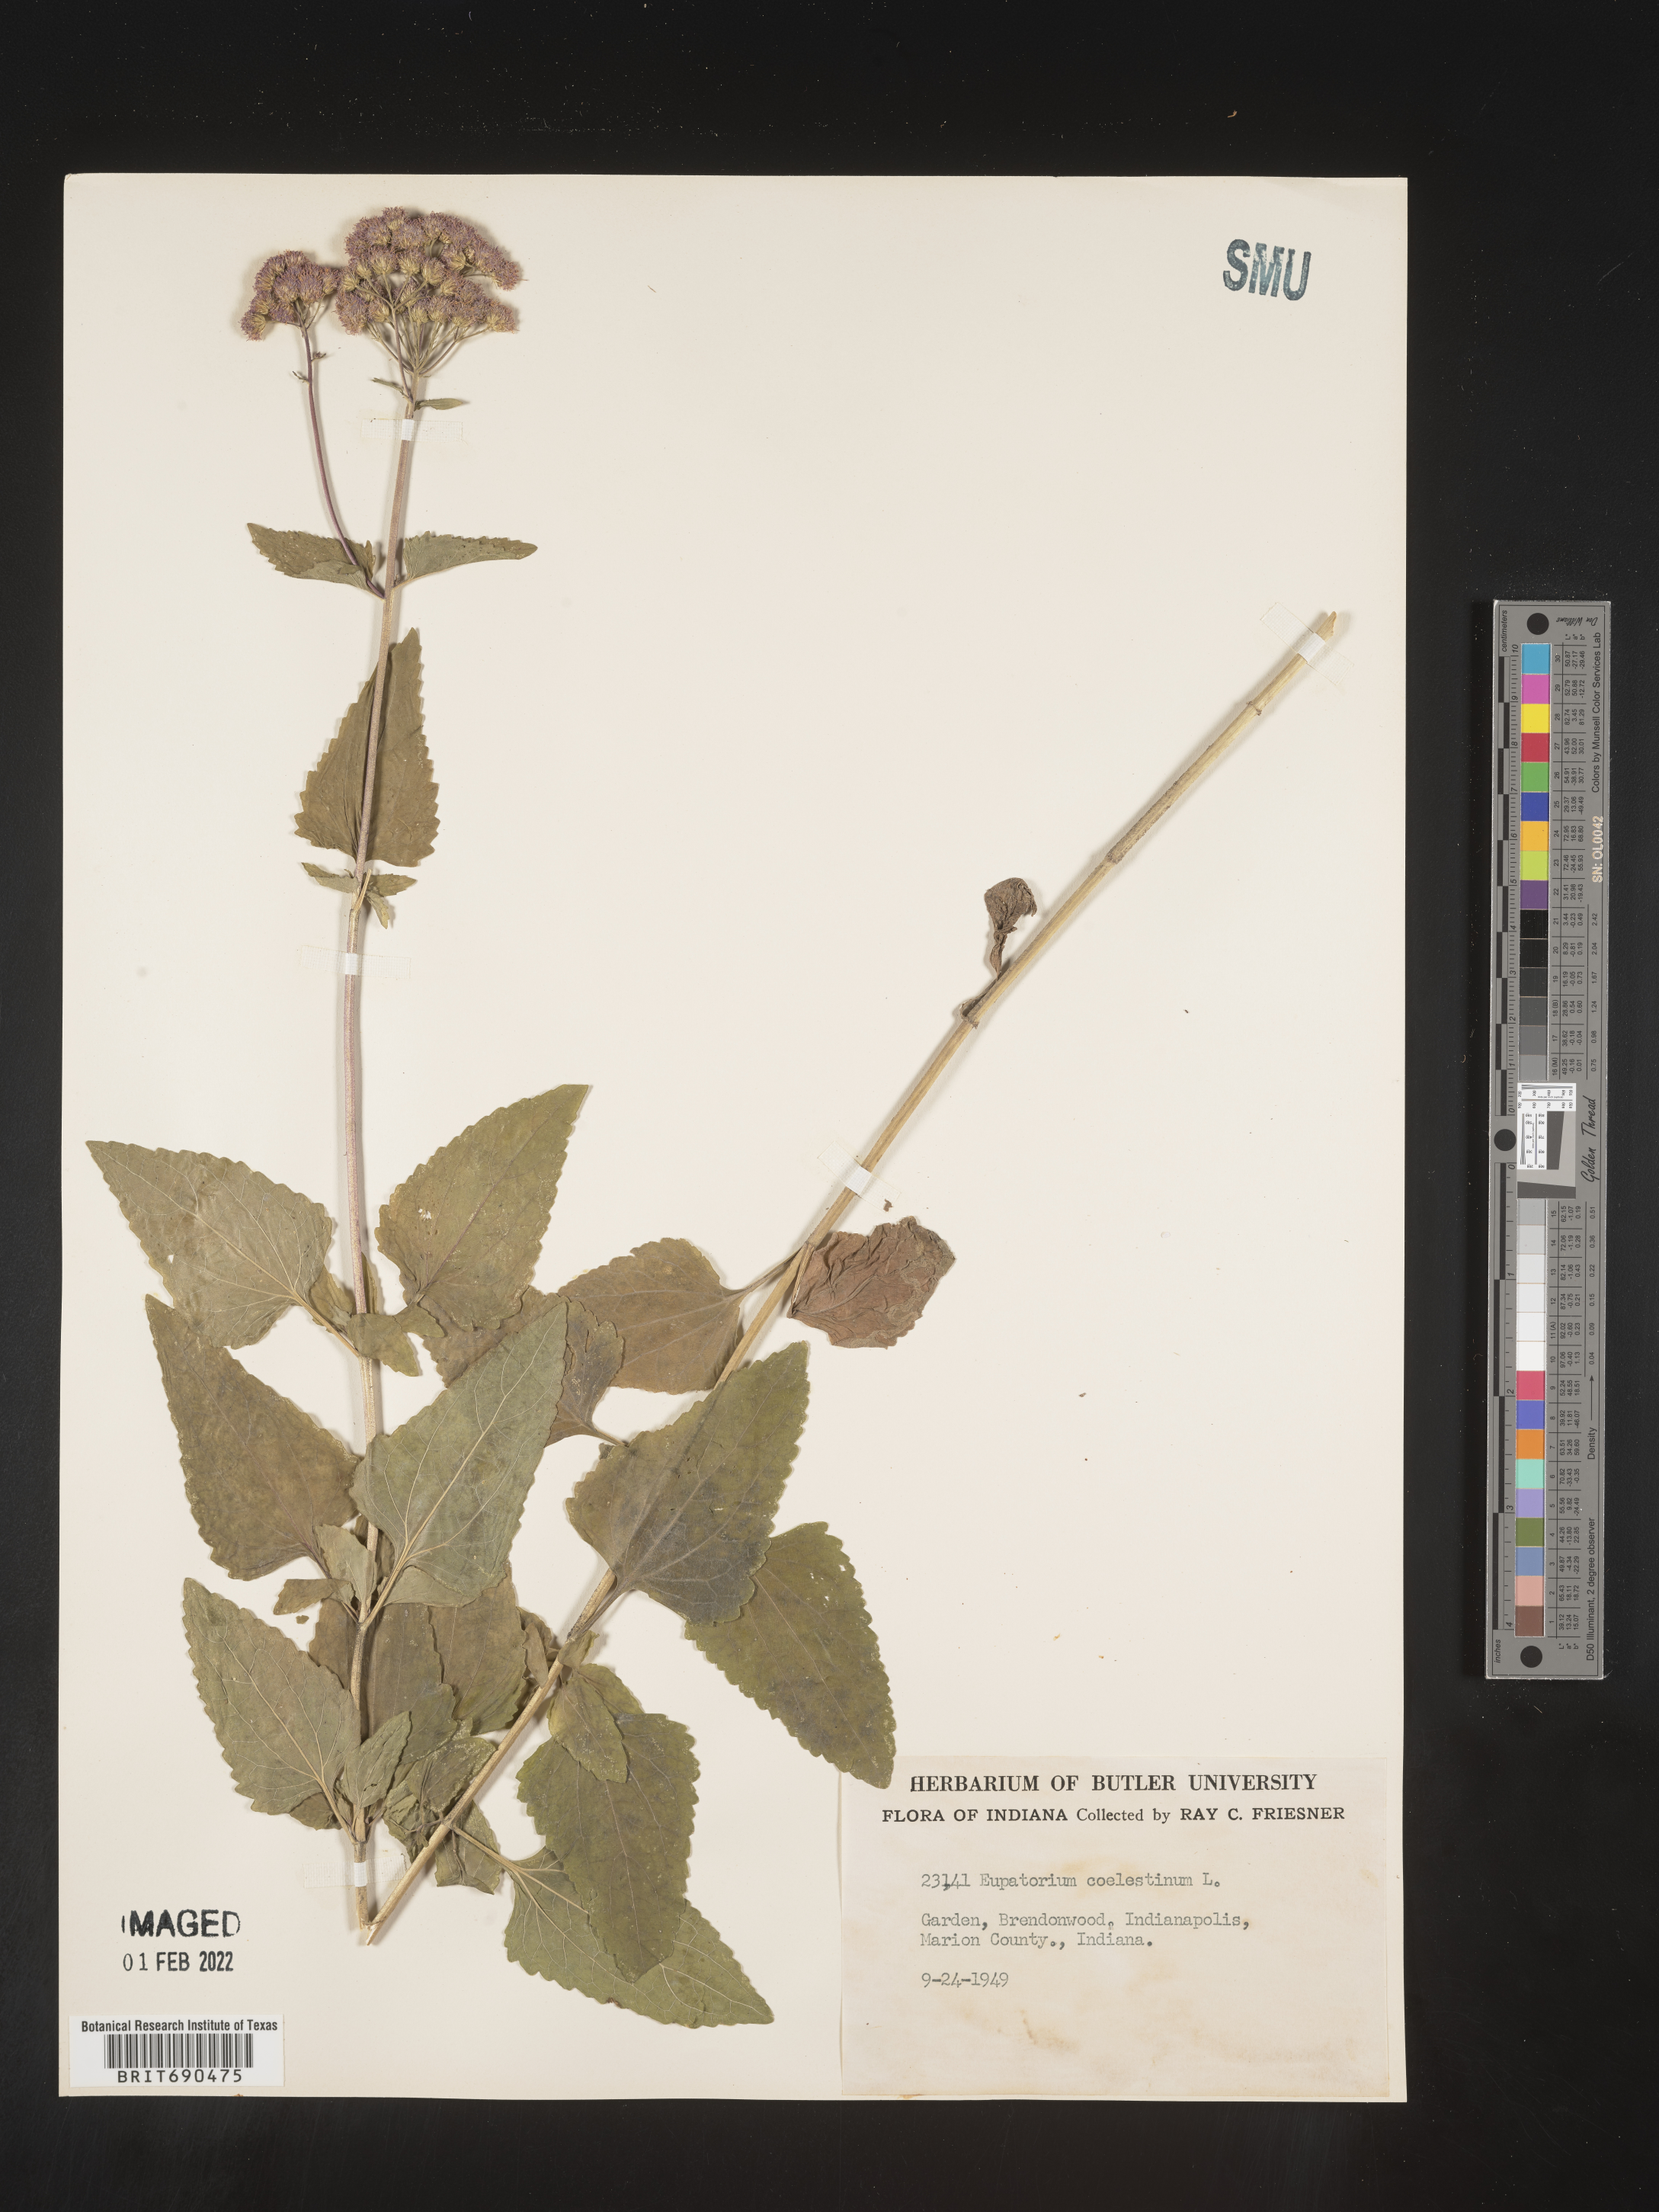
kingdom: Plantae
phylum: Tracheophyta
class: Magnoliopsida
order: Asterales
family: Asteraceae
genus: Conoclinium
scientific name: Conoclinium coelestinum
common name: Blue mistflower
